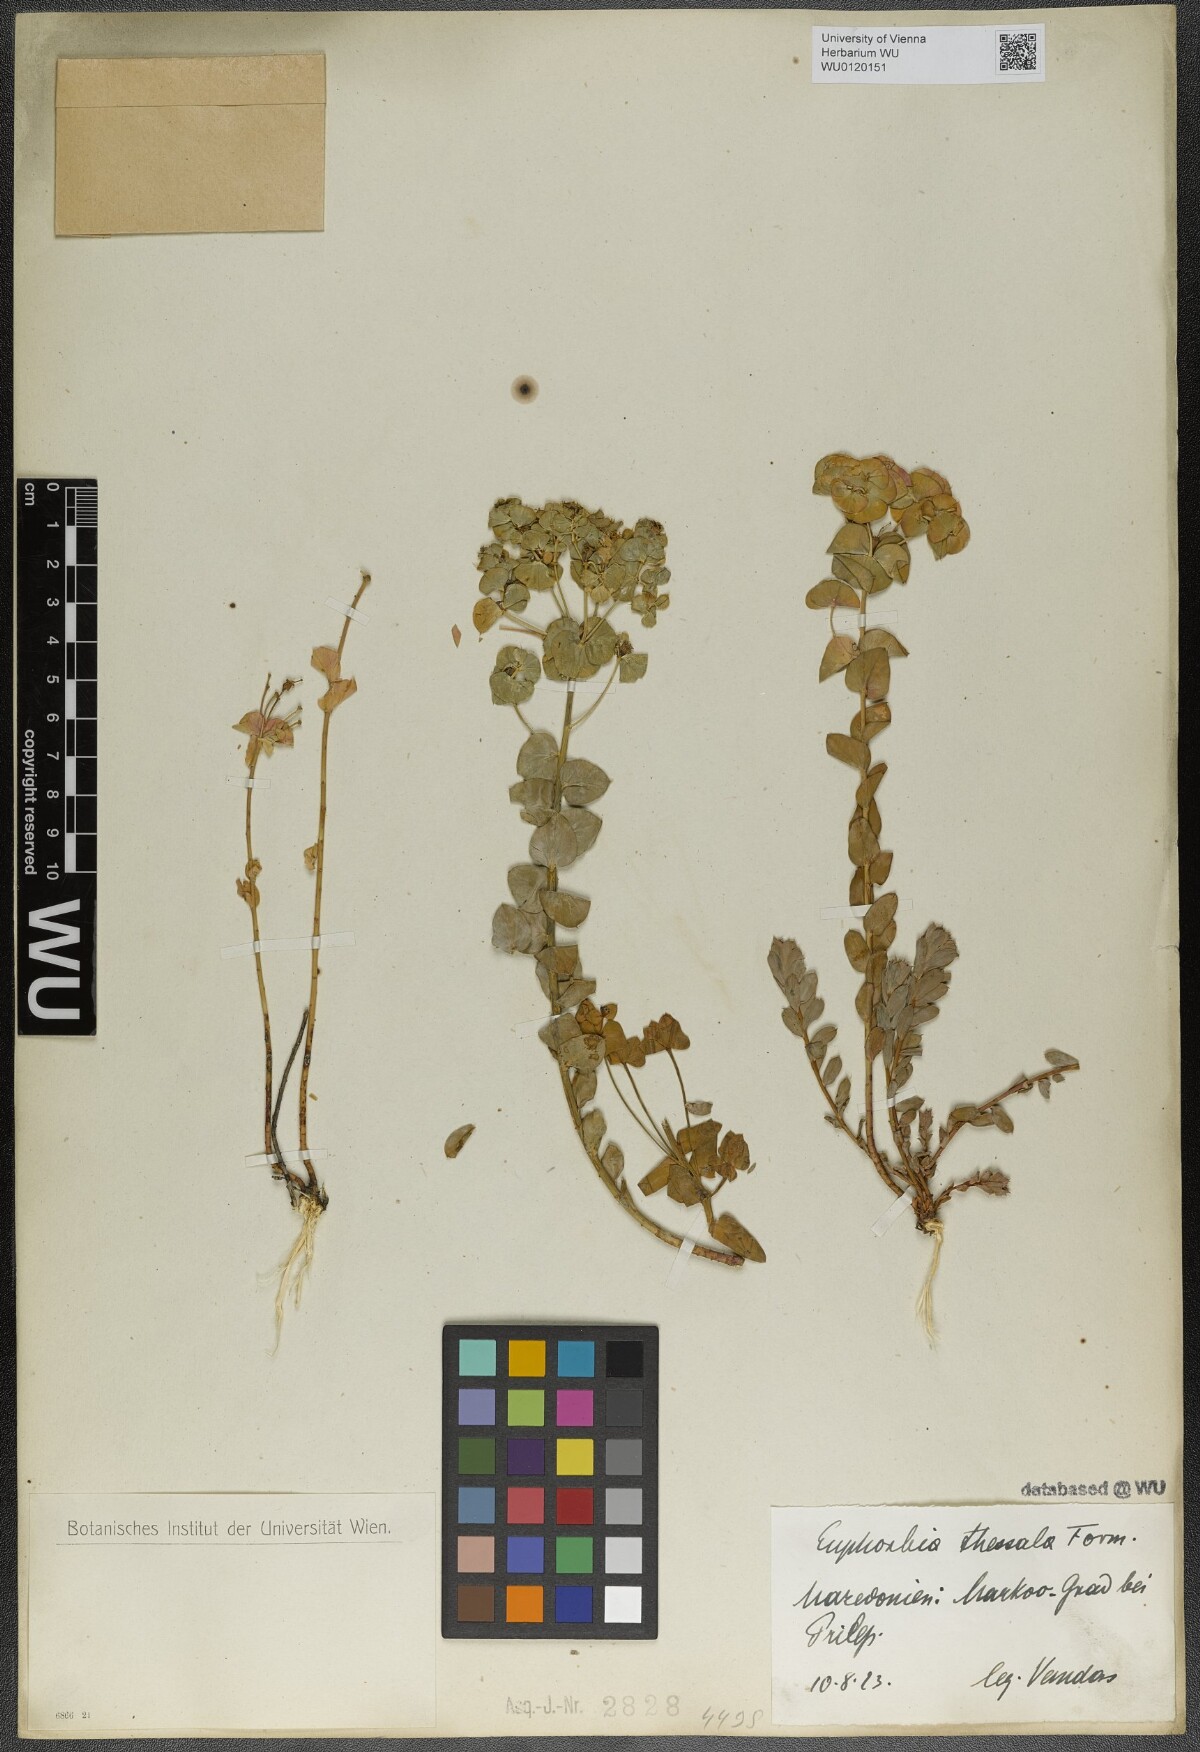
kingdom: Plantae
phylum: Tracheophyta
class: Magnoliopsida
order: Malpighiales
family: Euphorbiaceae
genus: Euphorbia
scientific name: Euphorbia barrelieri
